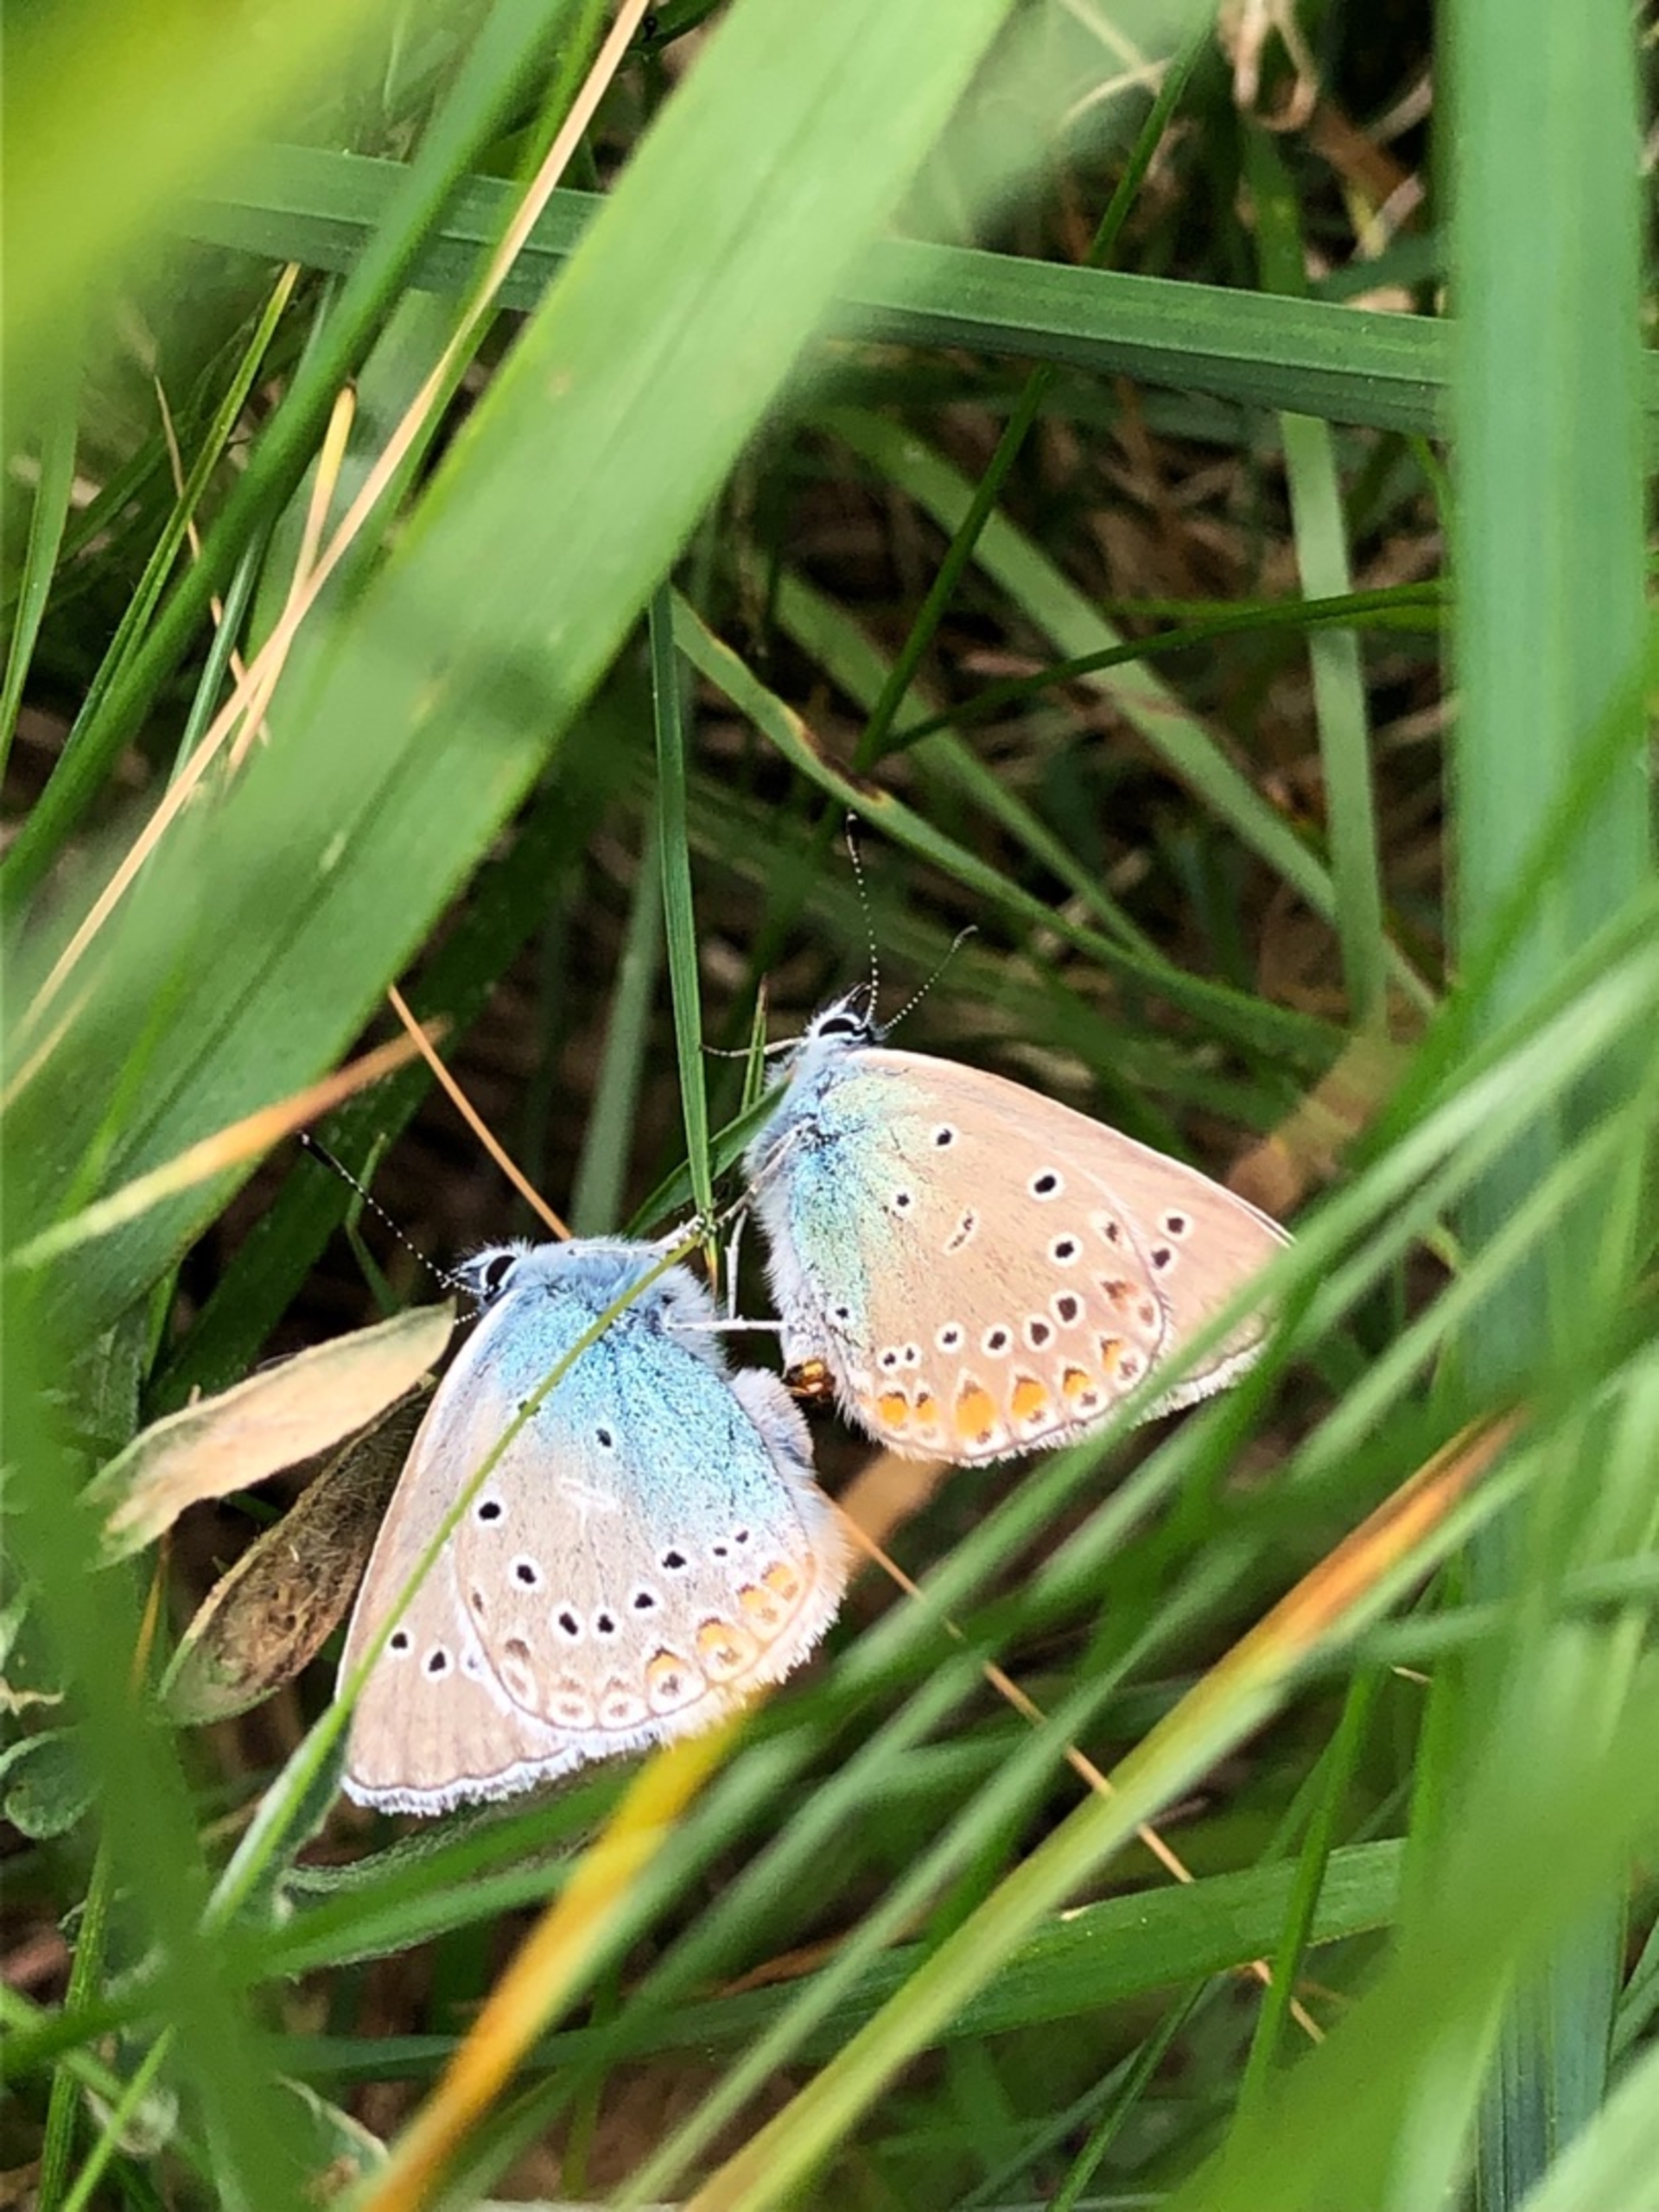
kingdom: Animalia
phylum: Arthropoda
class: Insecta
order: Lepidoptera
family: Lycaenidae
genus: Plebejus
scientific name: Plebejus amanda
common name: Isblåfugl
